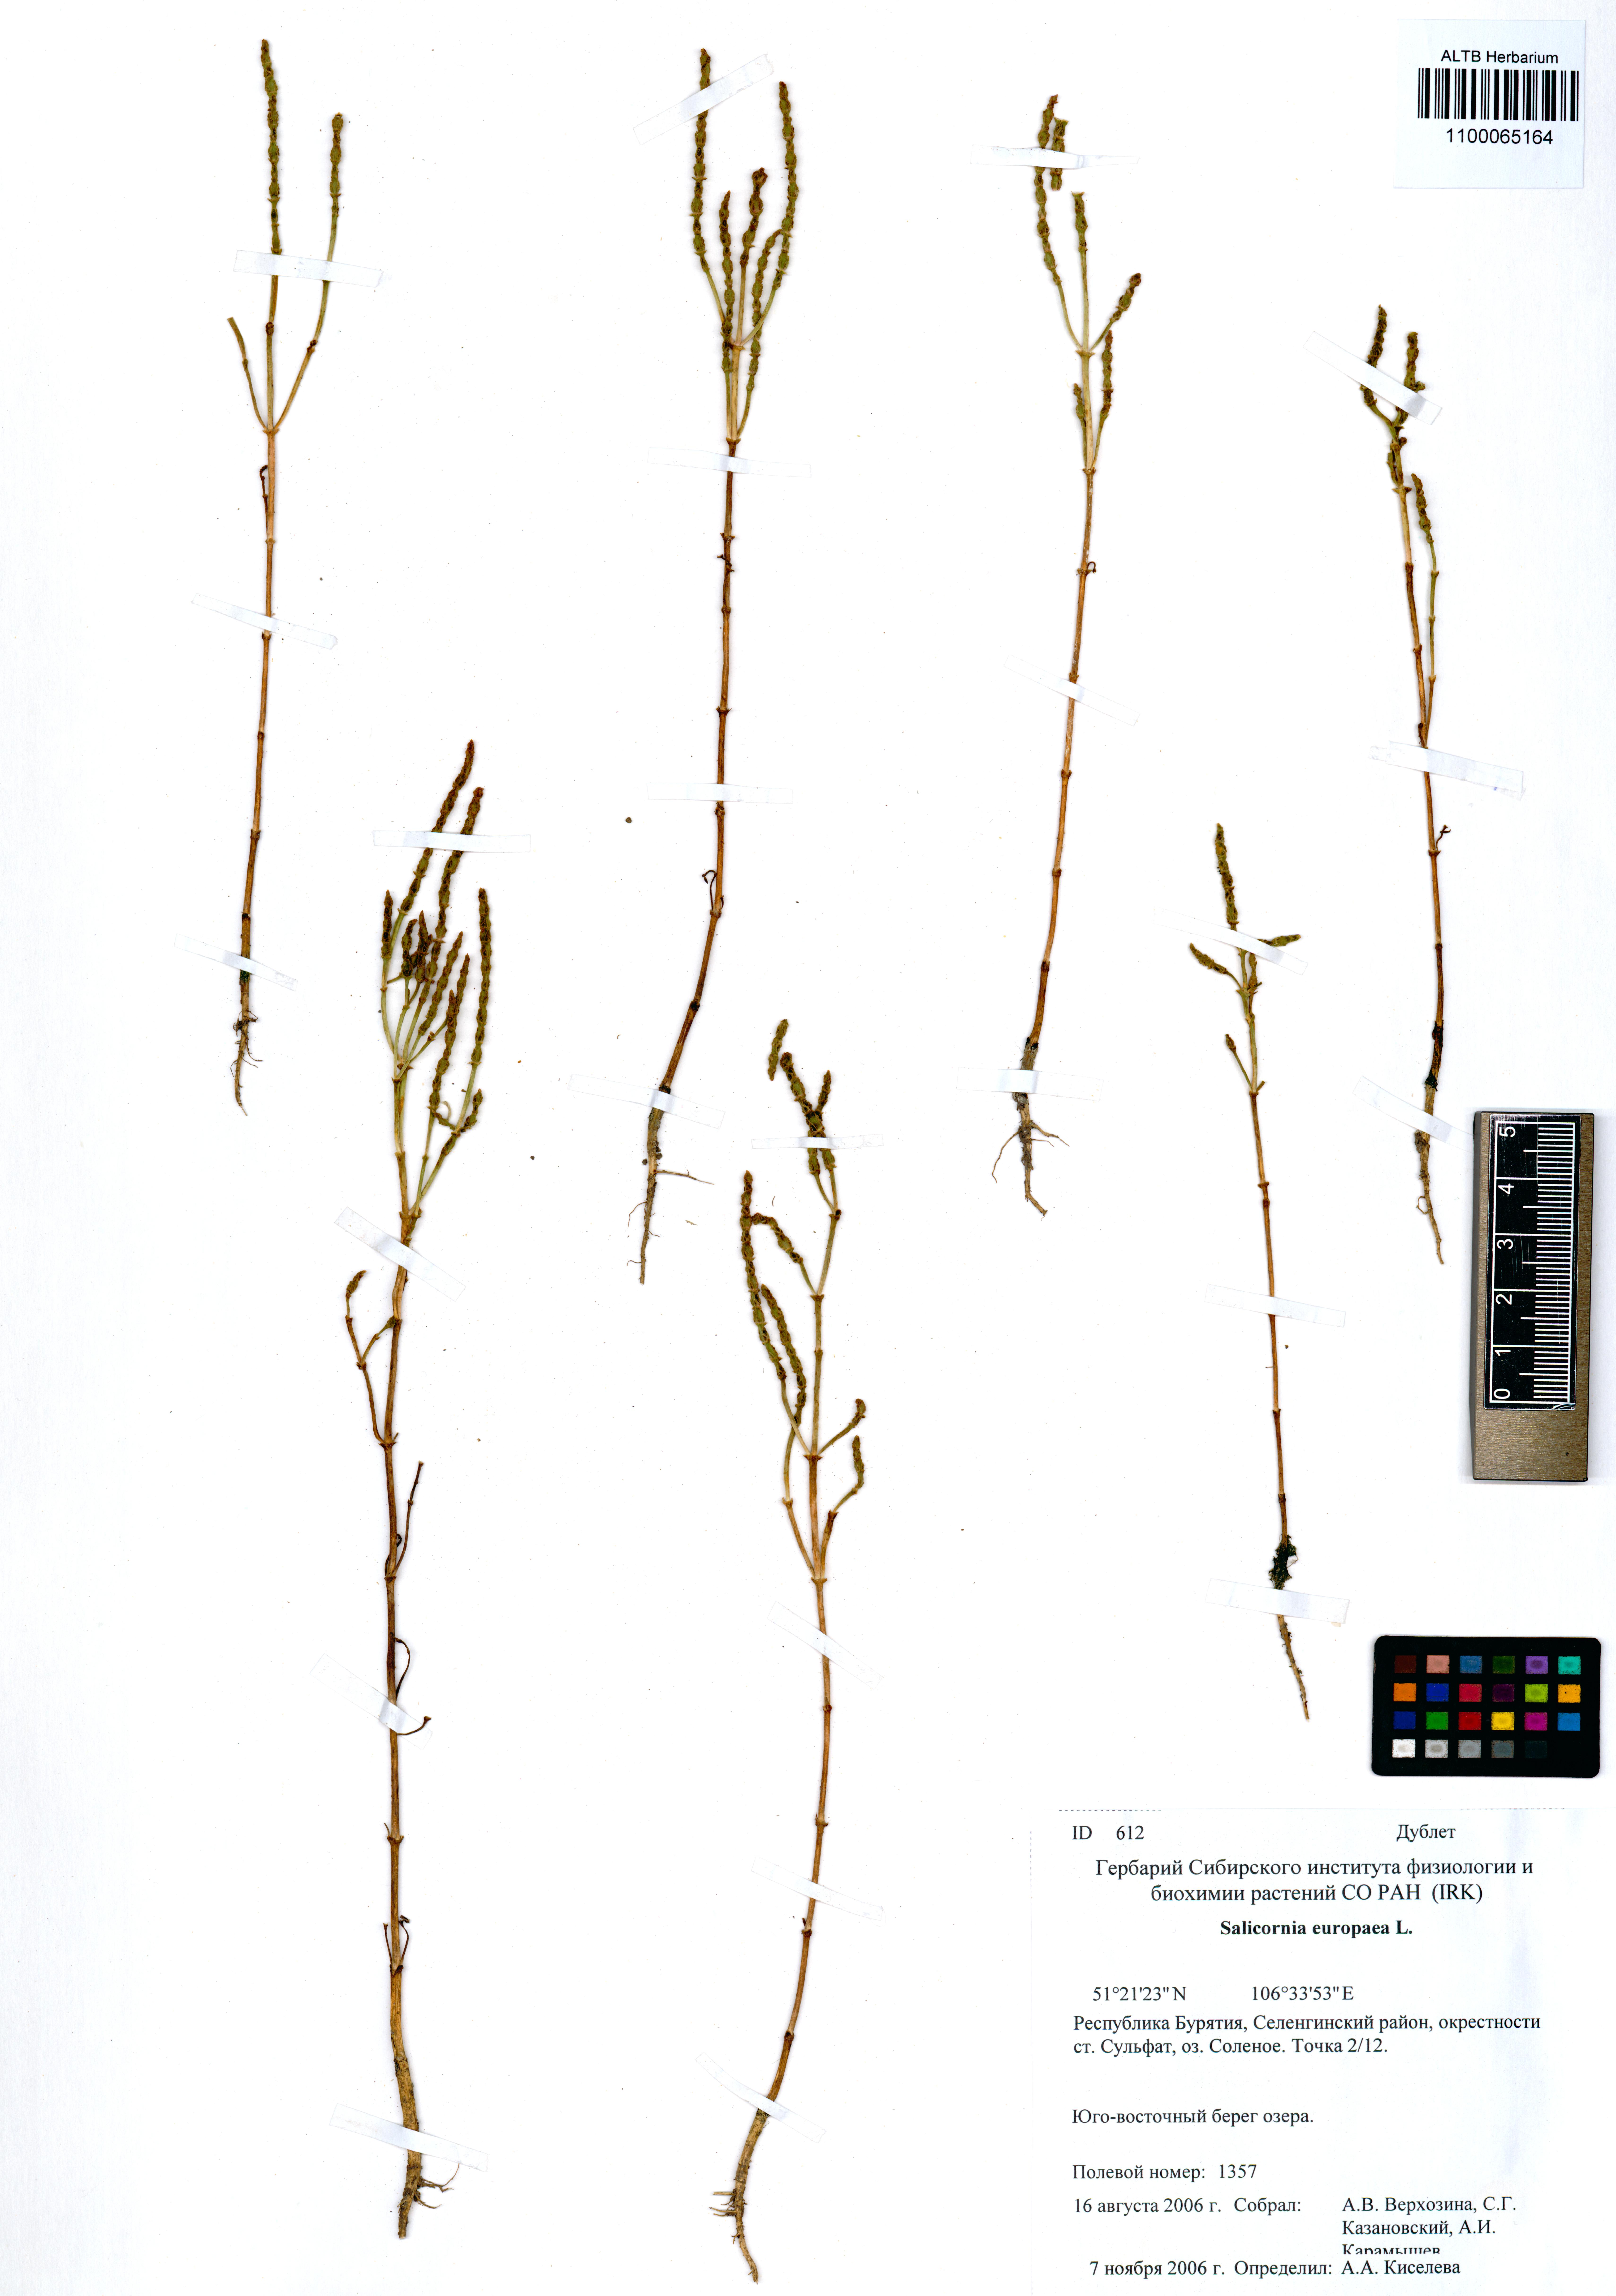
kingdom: Plantae
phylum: Tracheophyta
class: Magnoliopsida
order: Caryophyllales
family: Amaranthaceae
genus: Salicornia
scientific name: Salicornia europaea
